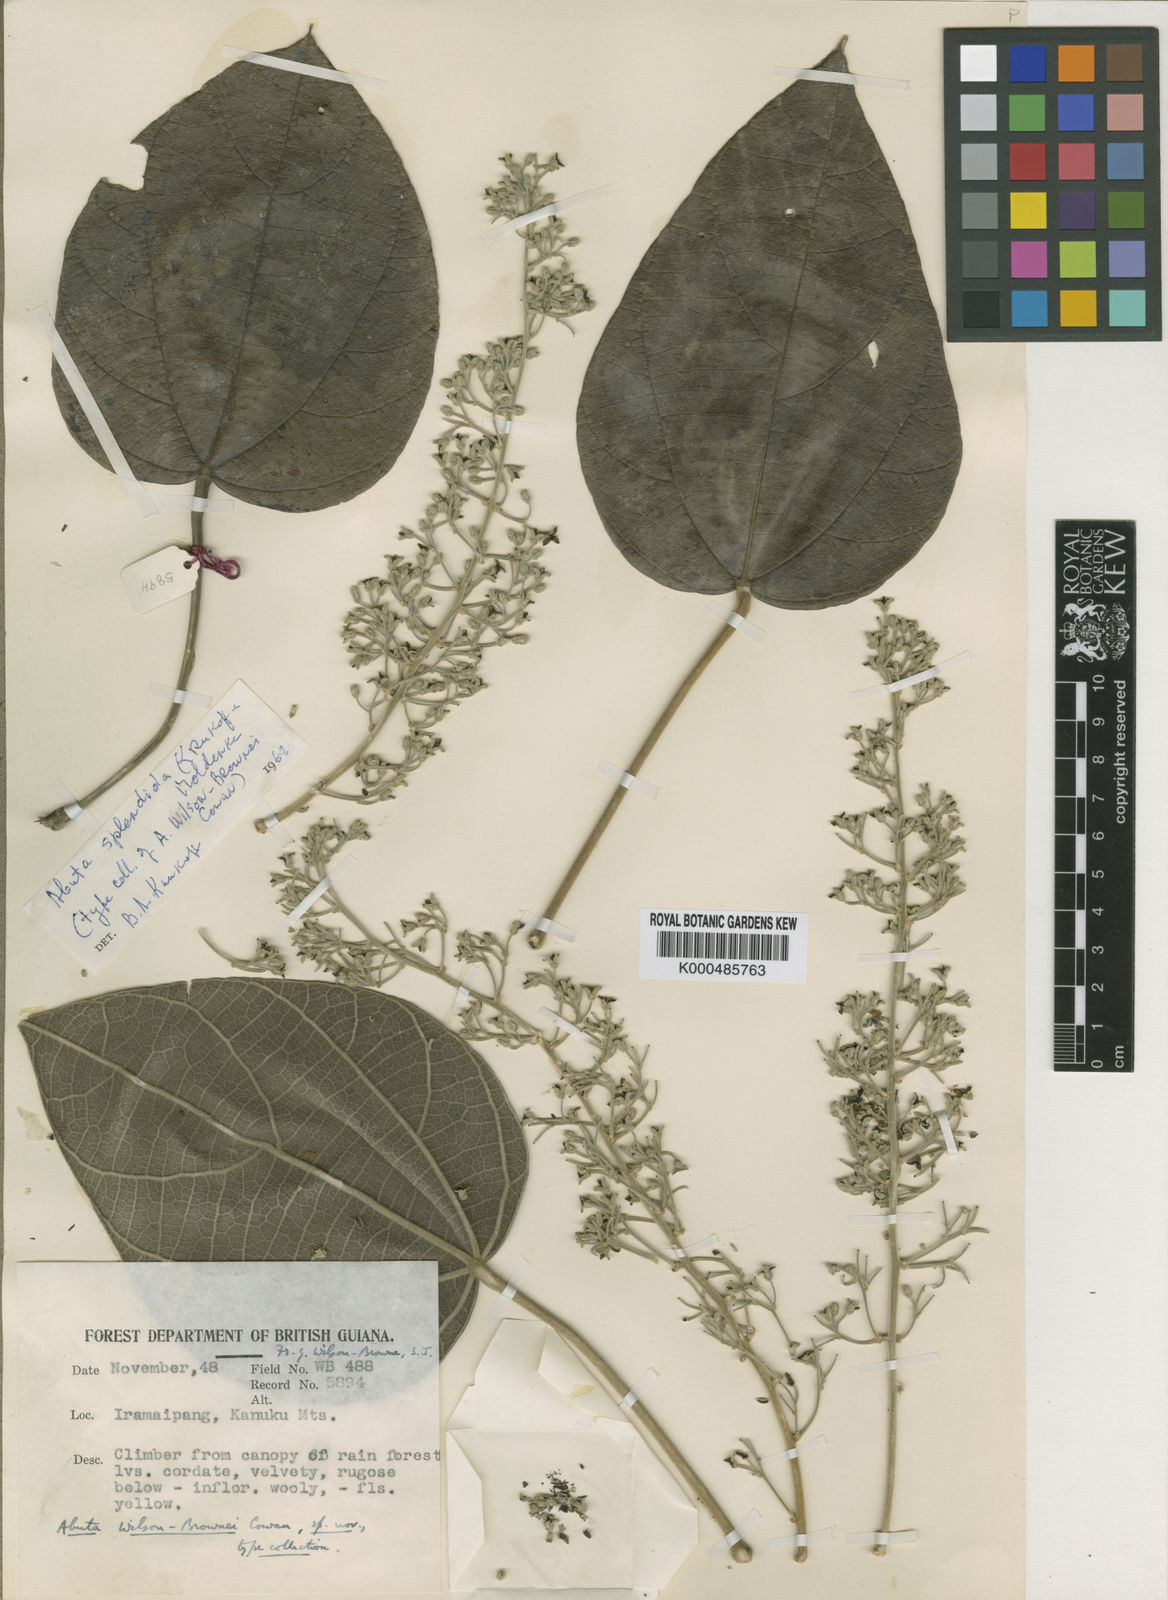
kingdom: Plantae
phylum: Tracheophyta
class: Magnoliopsida
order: Ranunculales
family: Menispermaceae
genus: Abuta
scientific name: Abuta rufescens
